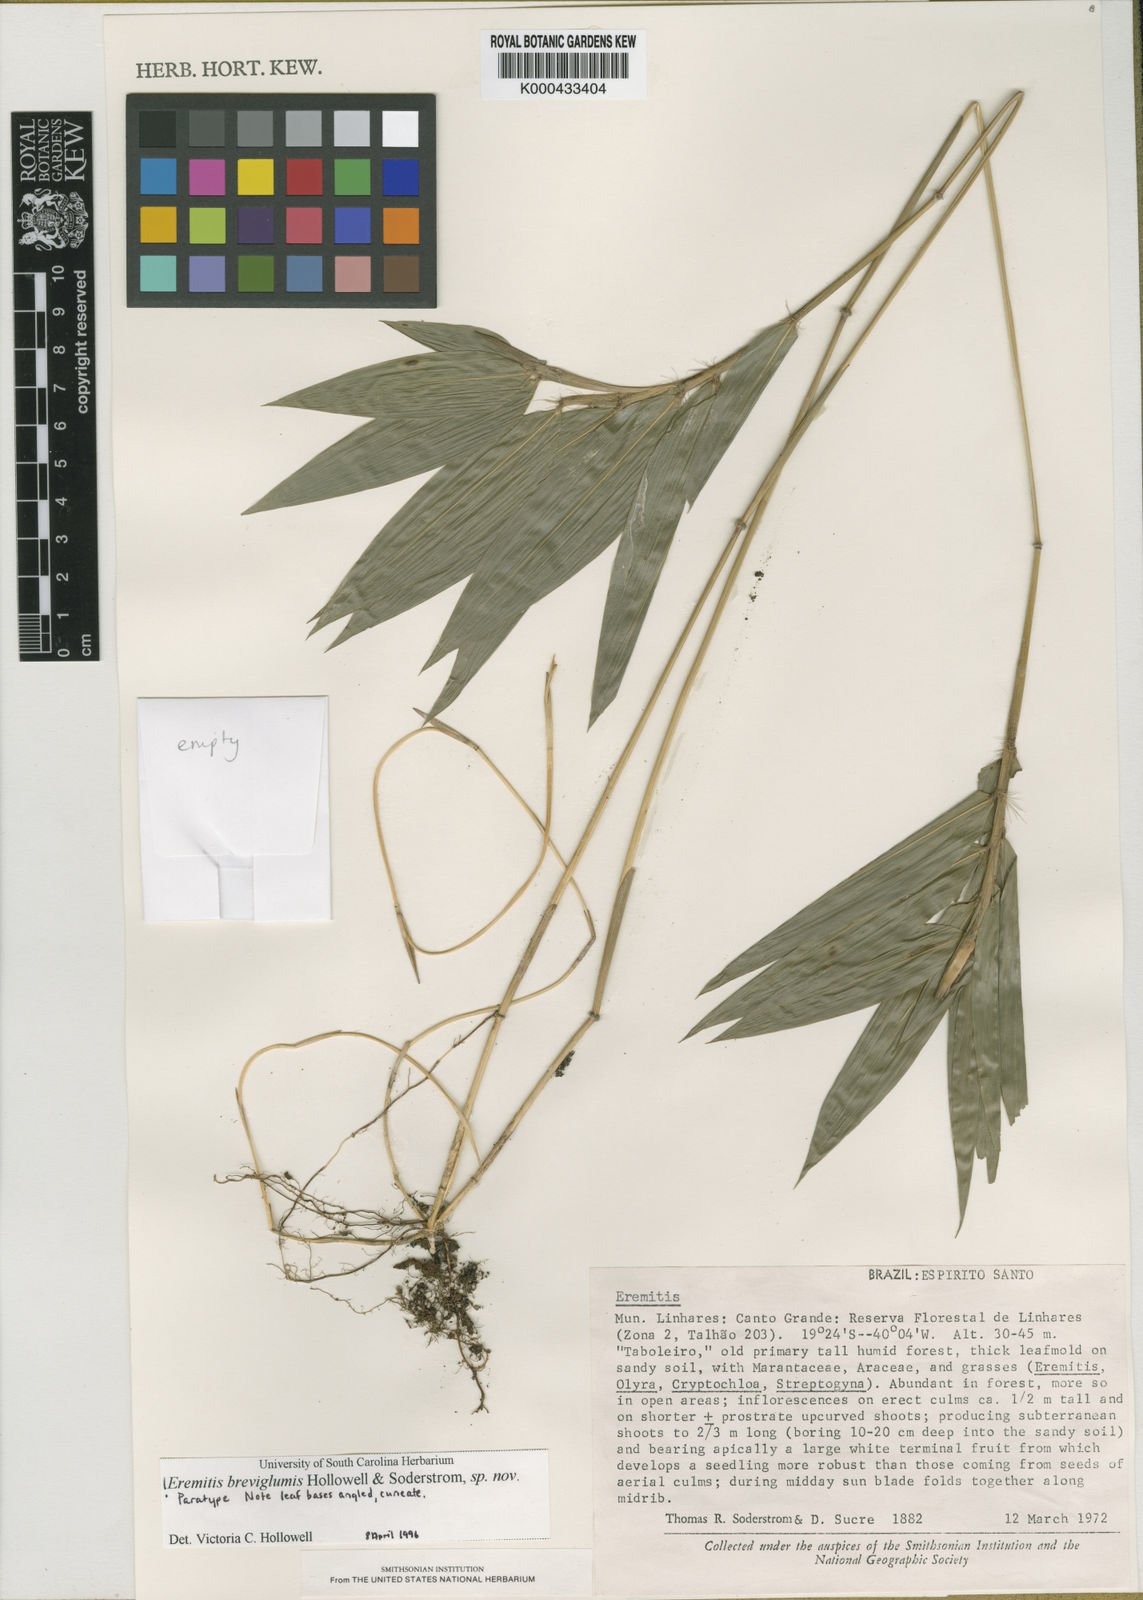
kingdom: Plantae
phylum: Tracheophyta
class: Liliopsida
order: Poales
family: Poaceae
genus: Eremitis
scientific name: Eremitis
